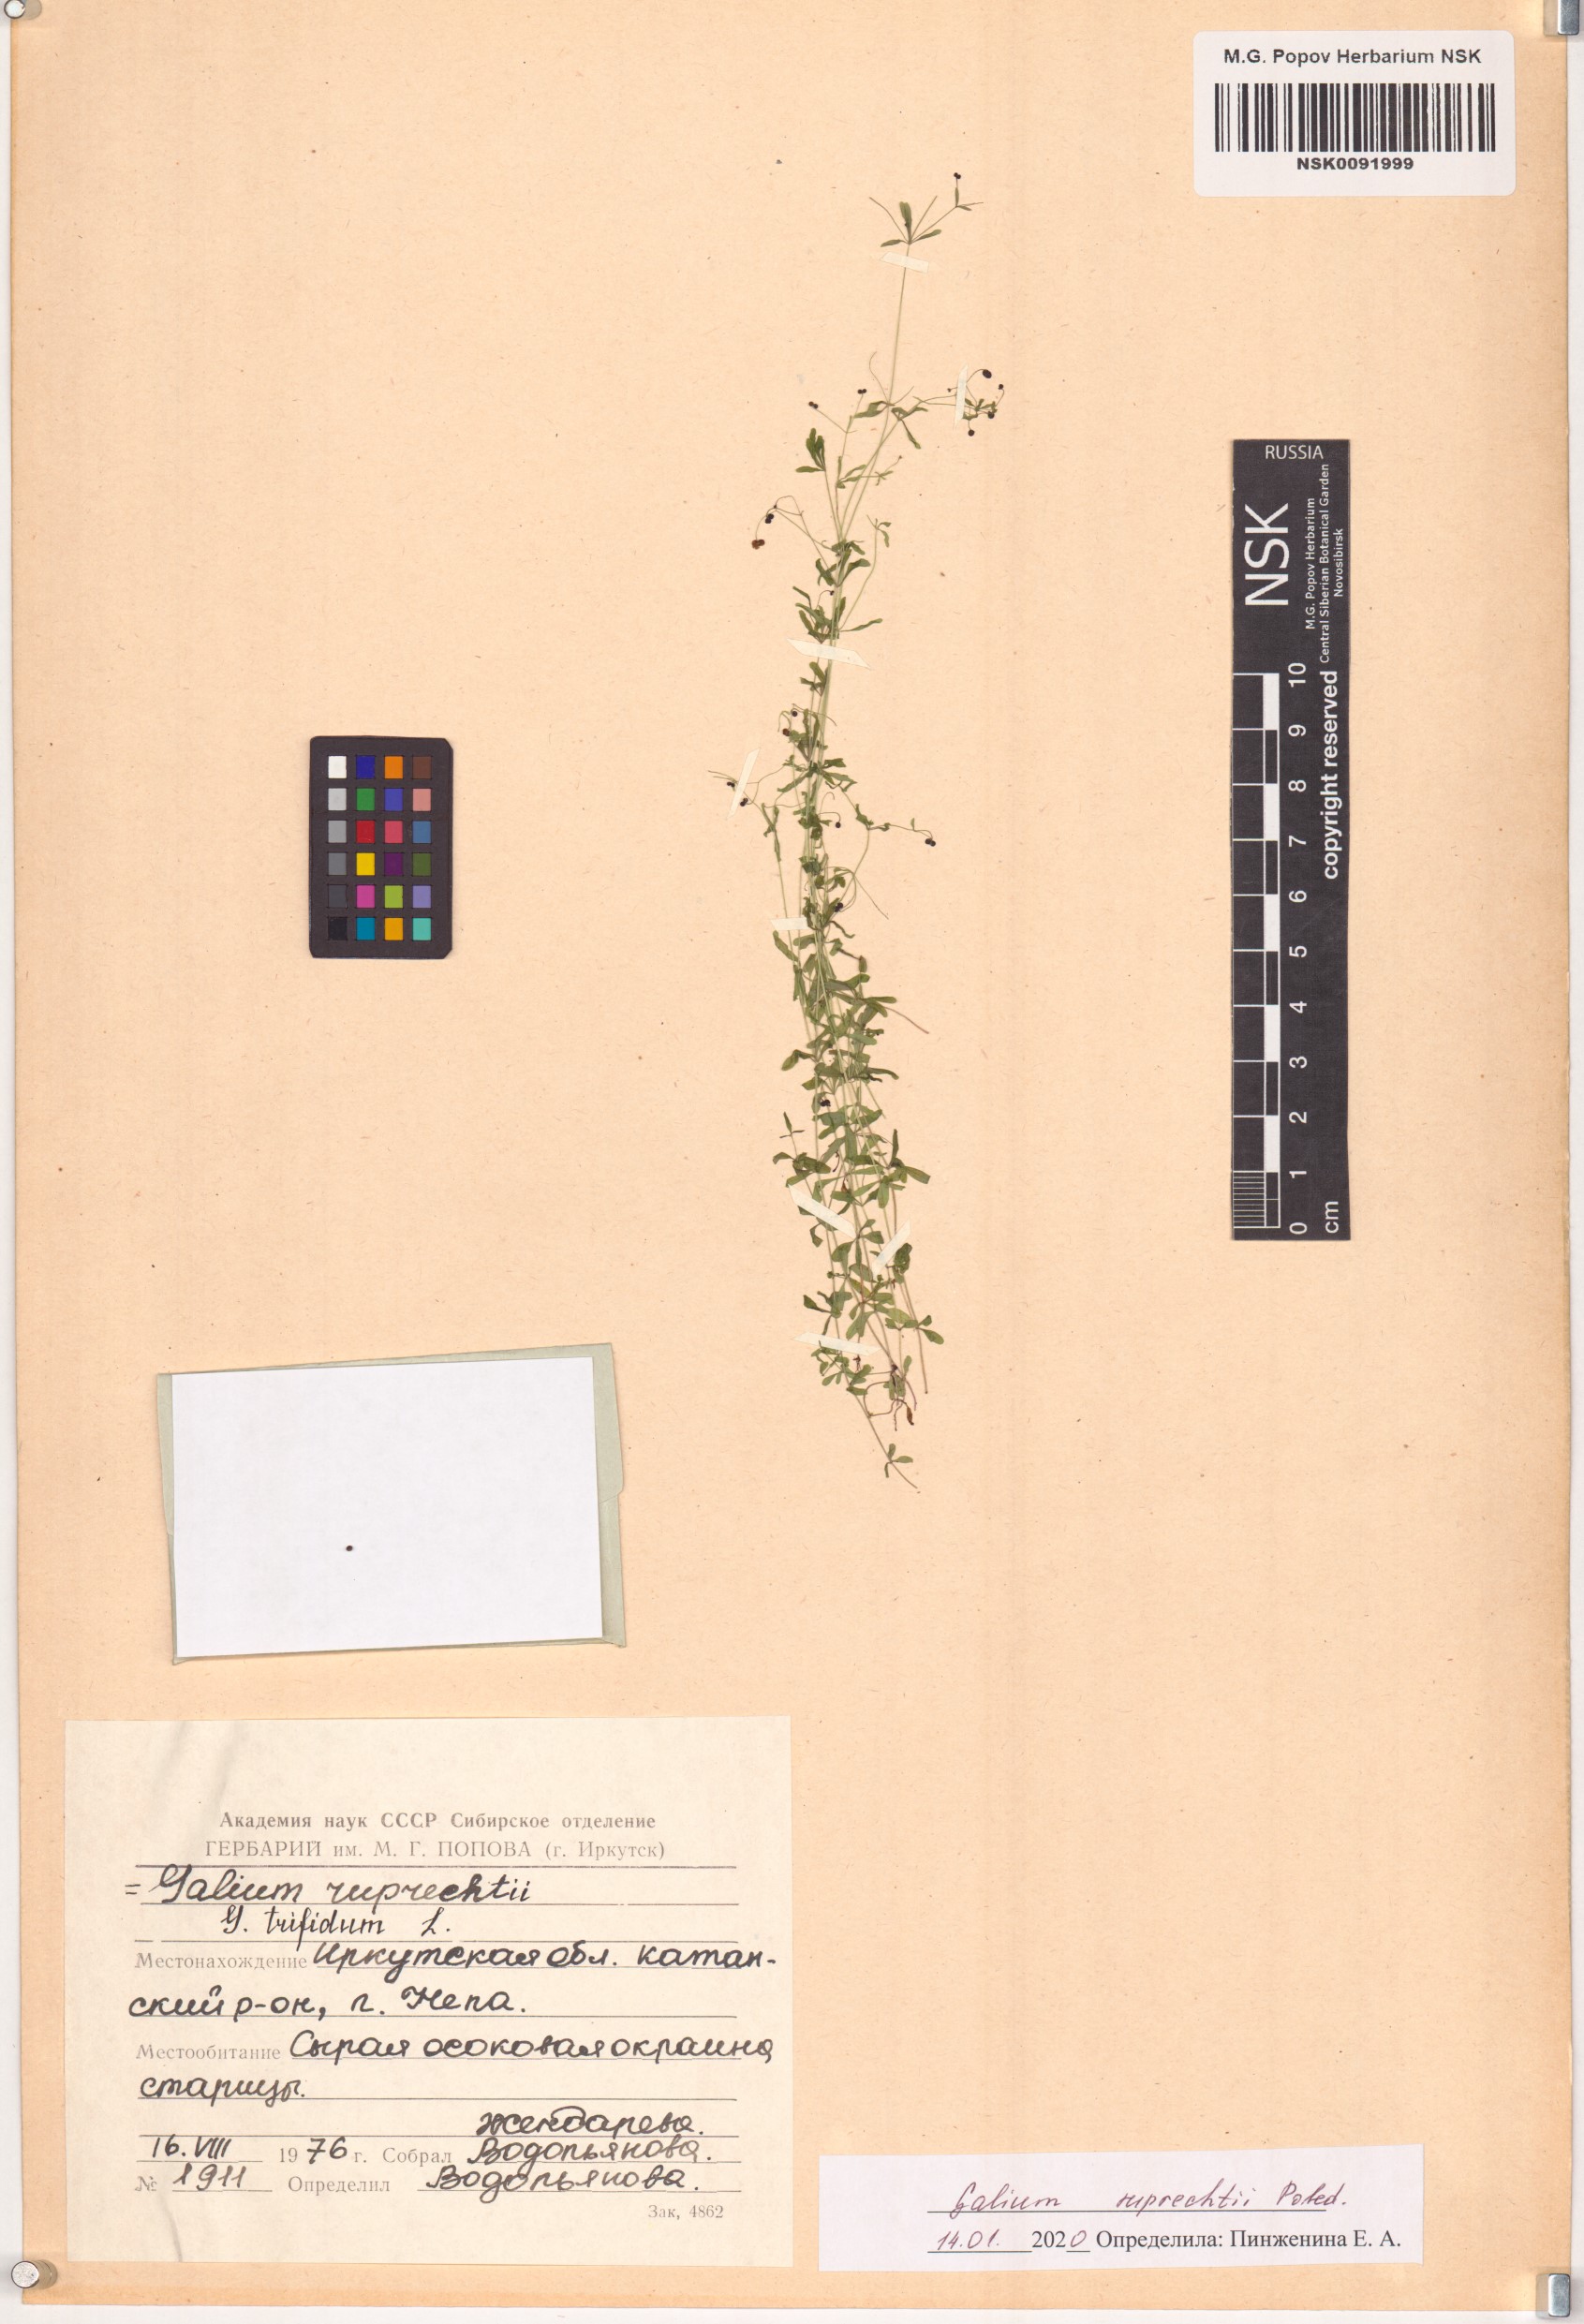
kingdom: Plantae
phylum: Tracheophyta
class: Magnoliopsida
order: Gentianales
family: Rubiaceae
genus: Galium
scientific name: Galium trifidum
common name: Small bedstraw
